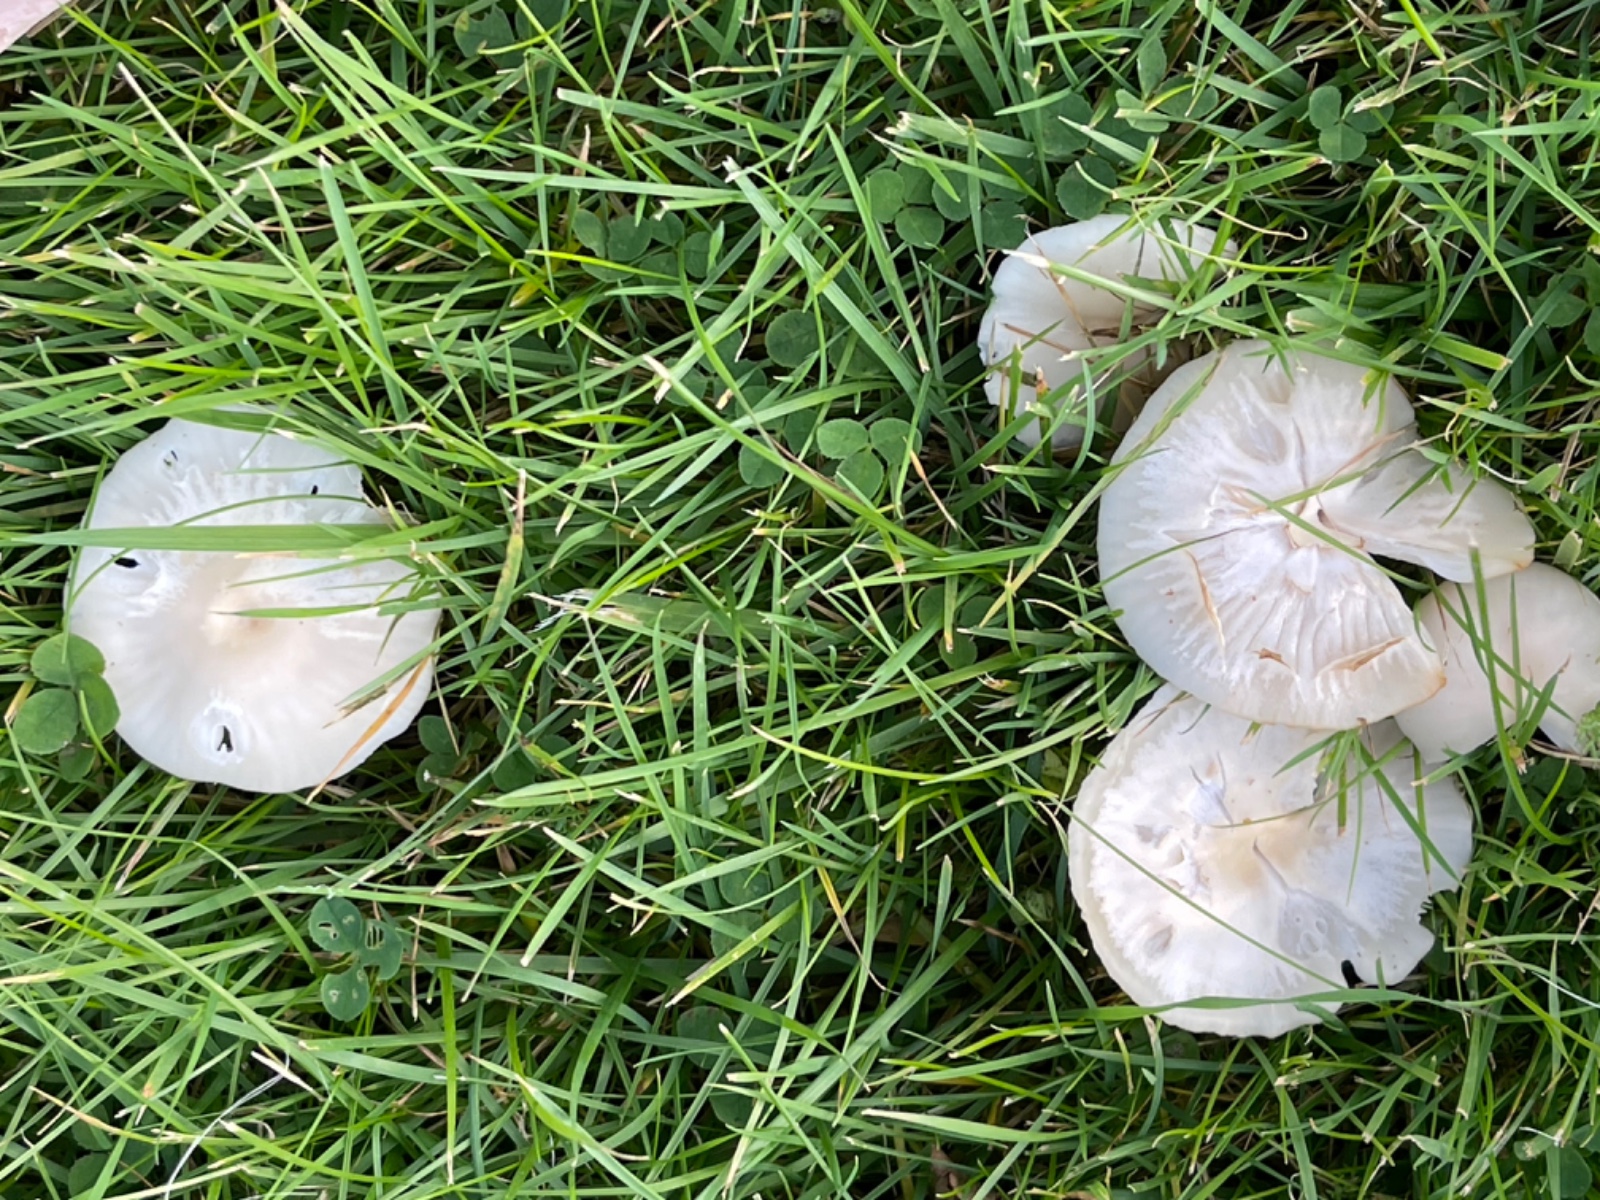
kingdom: Fungi
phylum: Basidiomycota
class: Agaricomycetes
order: Agaricales
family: Hygrophoraceae
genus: Cuphophyllus
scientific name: Cuphophyllus
